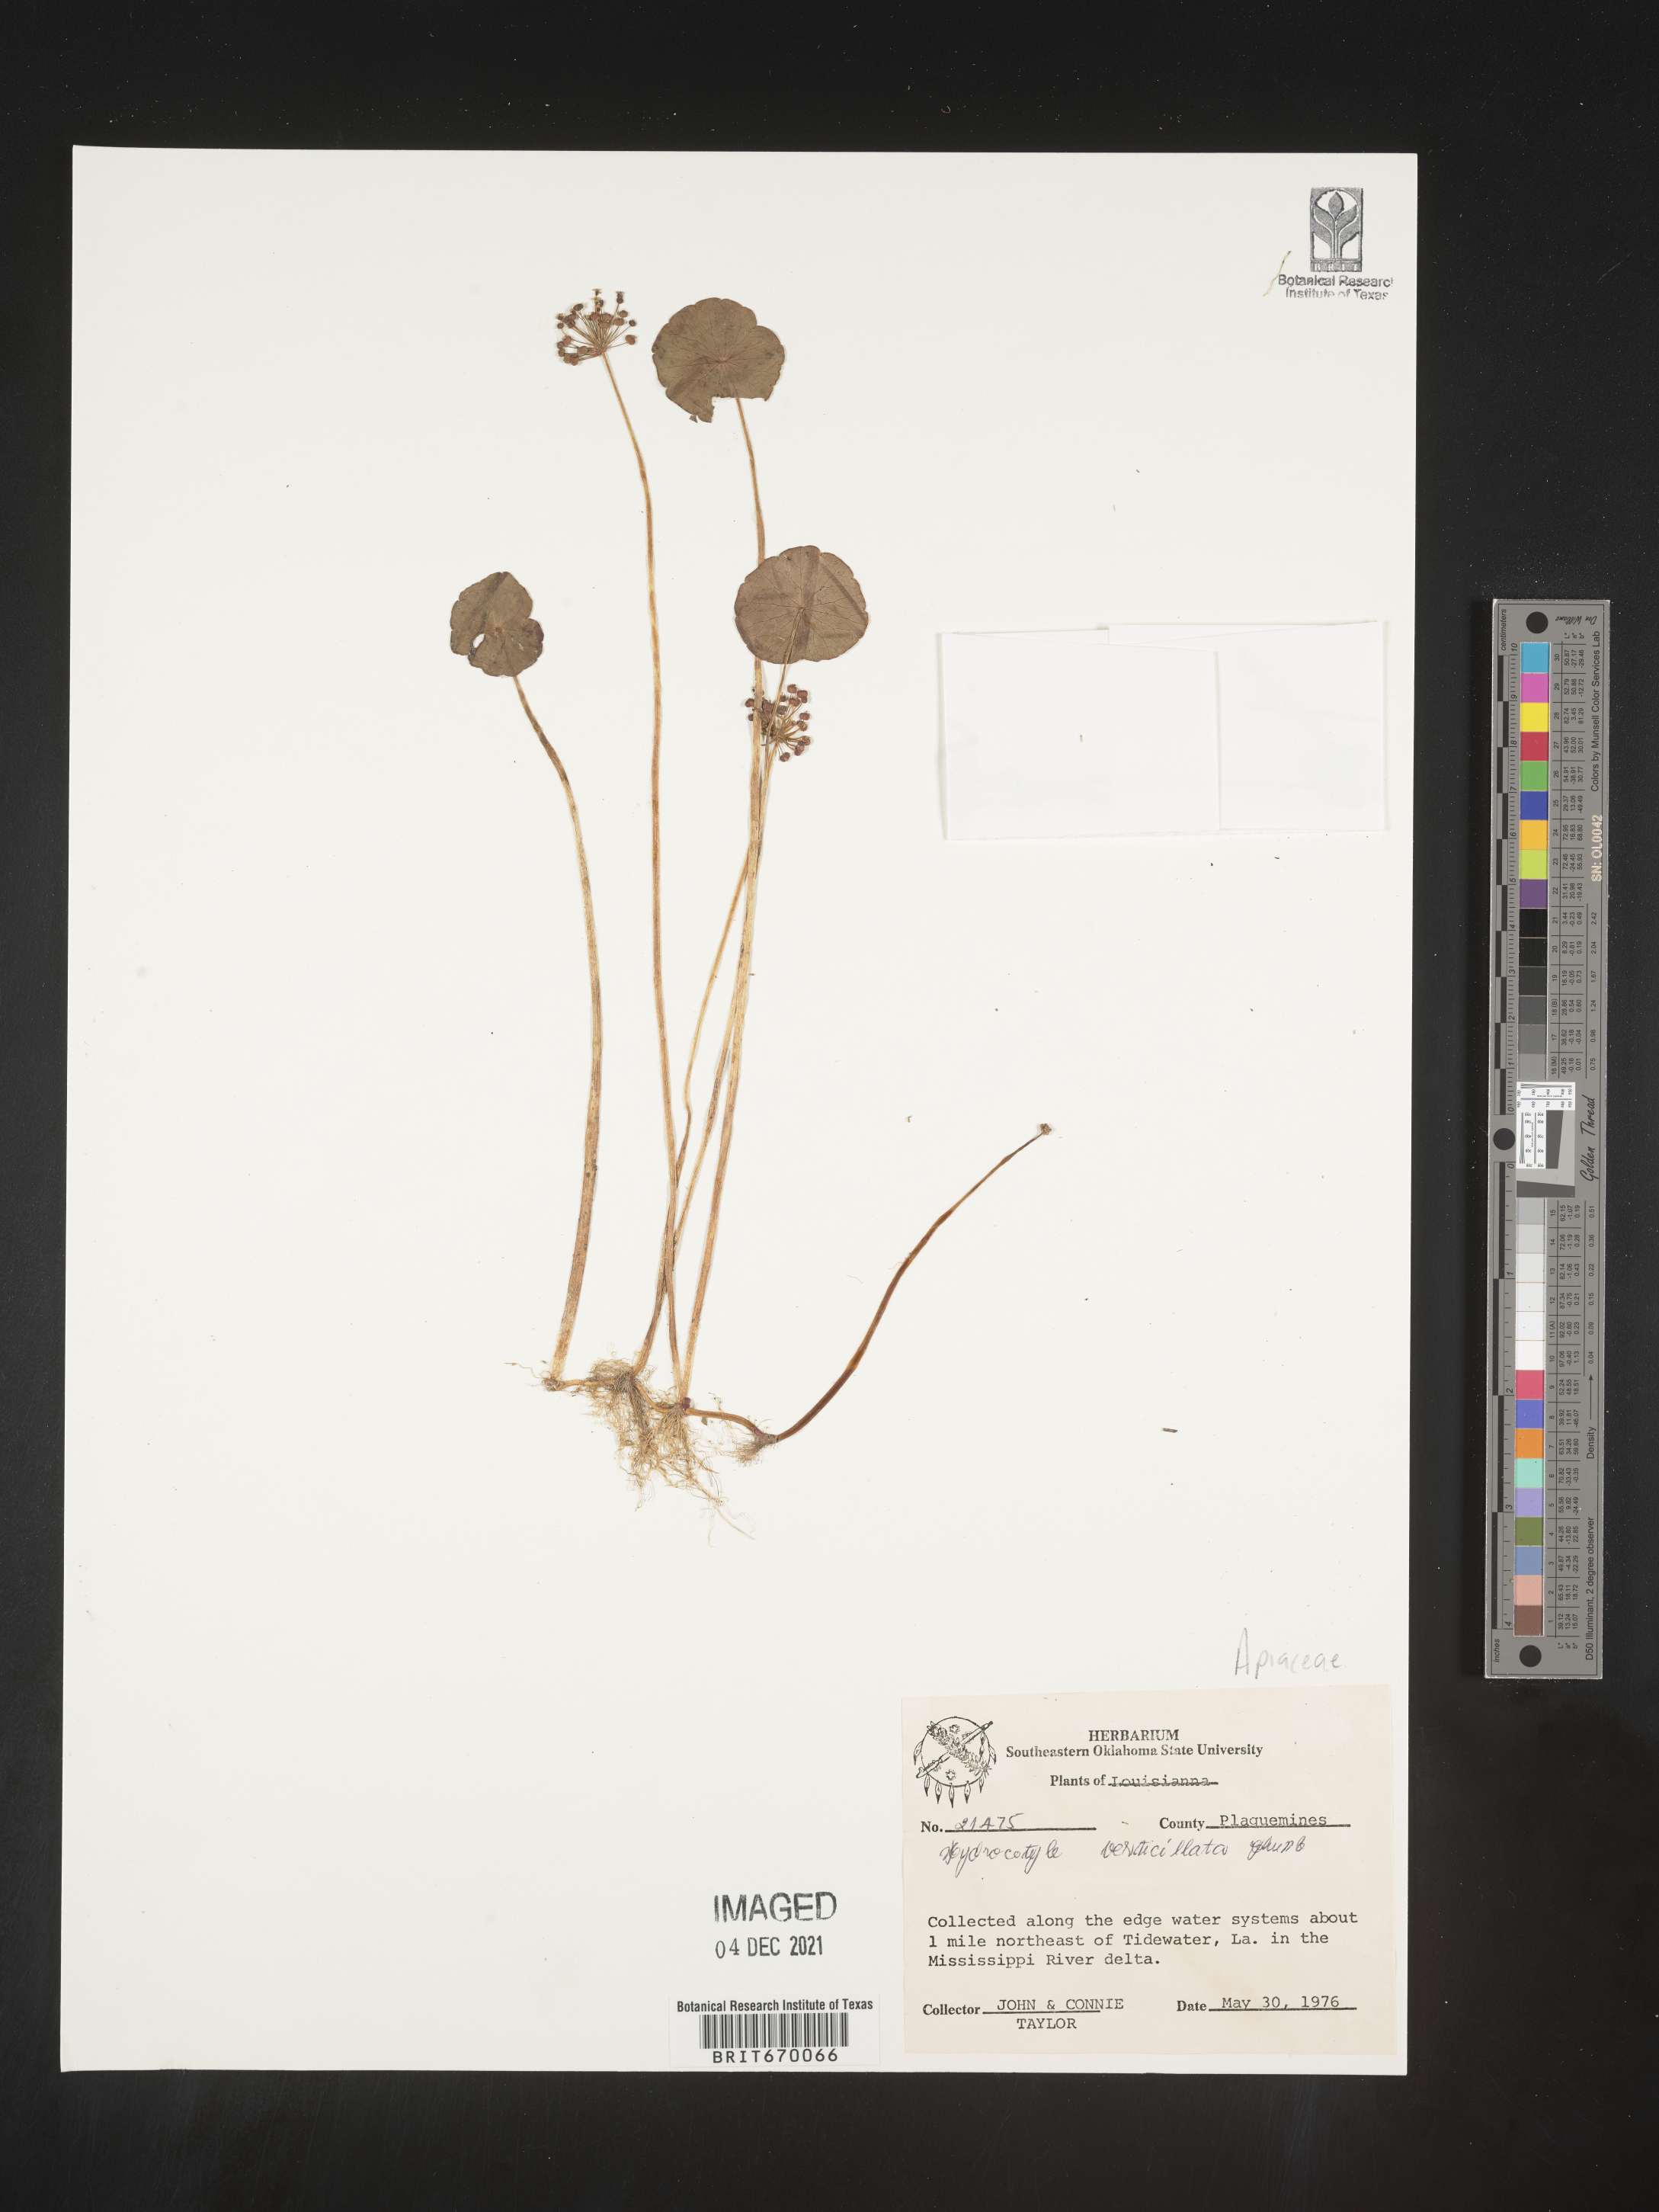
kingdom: Plantae
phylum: Tracheophyta
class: Magnoliopsida
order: Apiales
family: Araliaceae
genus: Hydrocotyle
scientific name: Hydrocotyle verticillata
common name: Whorled marshpennywort
